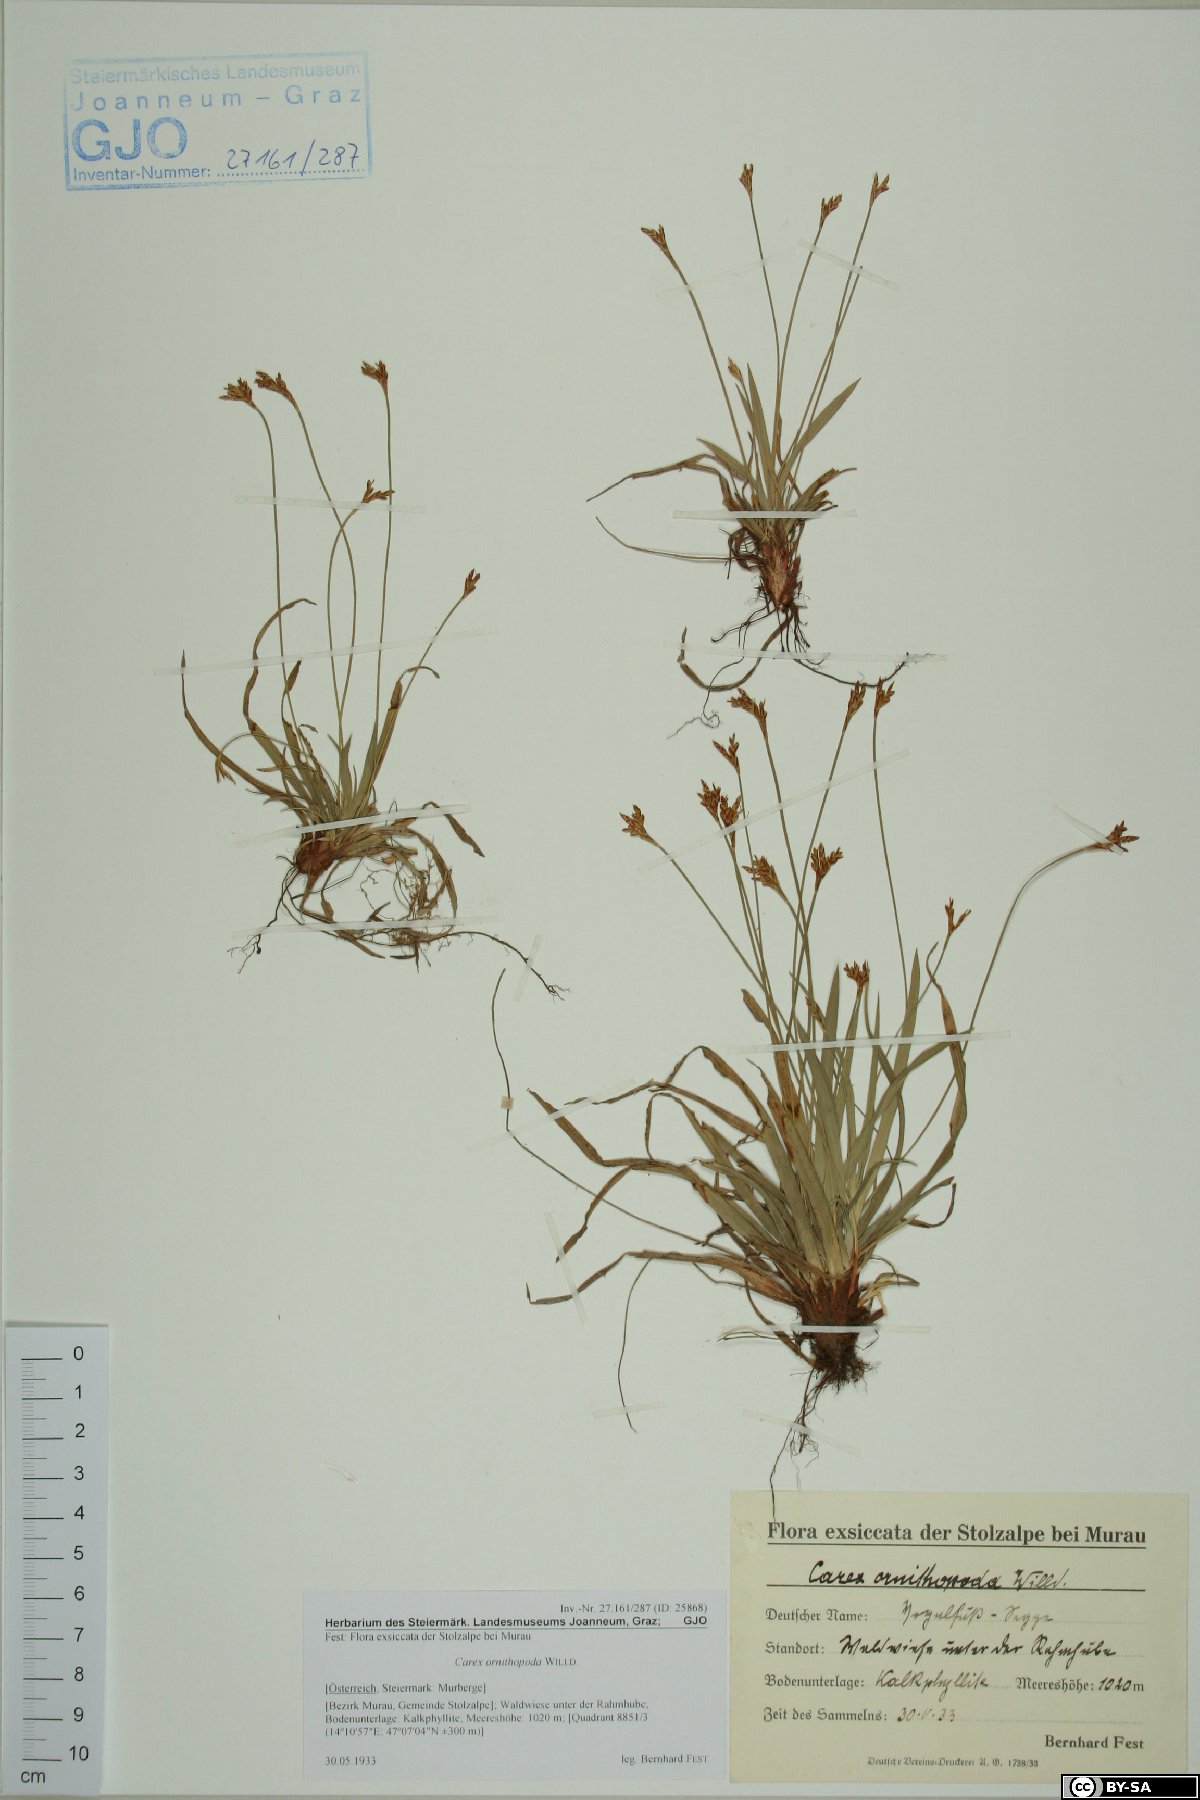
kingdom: Plantae
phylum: Tracheophyta
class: Liliopsida
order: Poales
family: Cyperaceae
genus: Carex
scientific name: Carex ornithopoda
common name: Bird's-foot sedge
